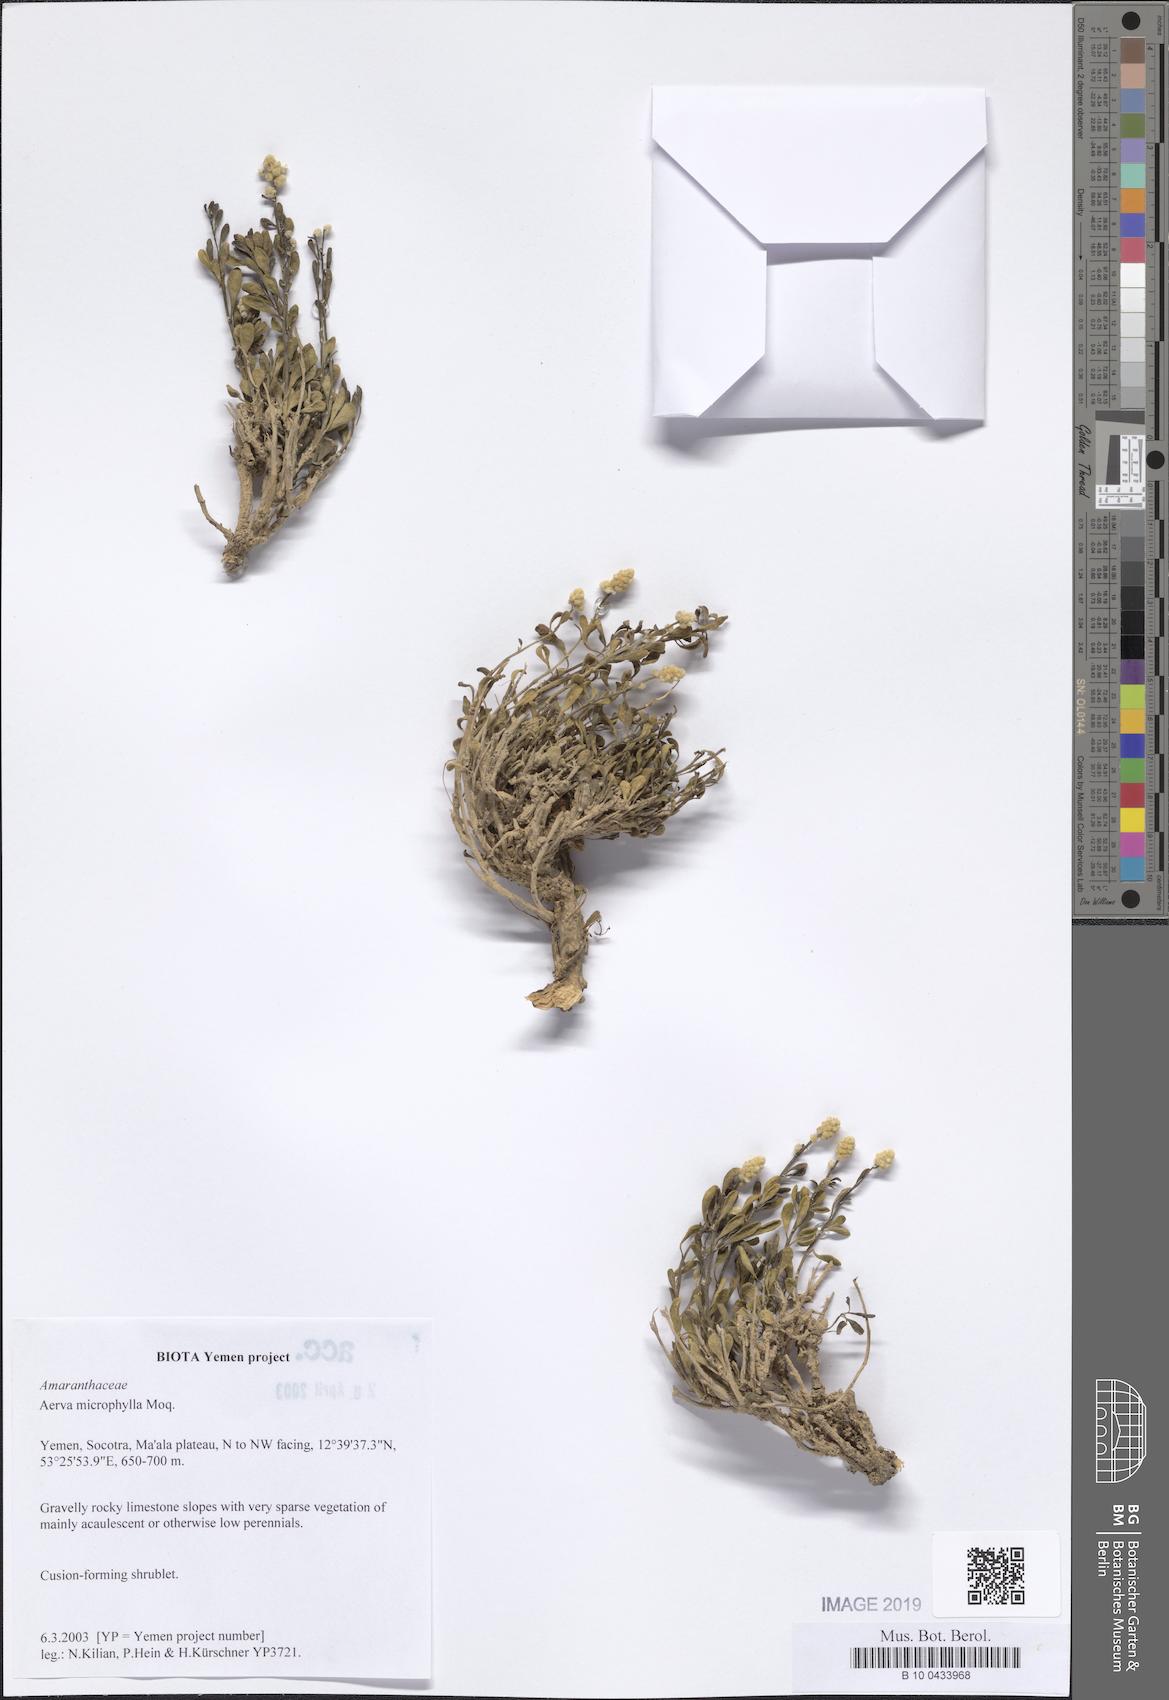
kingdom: Plantae
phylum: Tracheophyta
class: Magnoliopsida
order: Caryophyllales
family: Amaranthaceae
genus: Paraerva
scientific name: Paraerva microphylla
